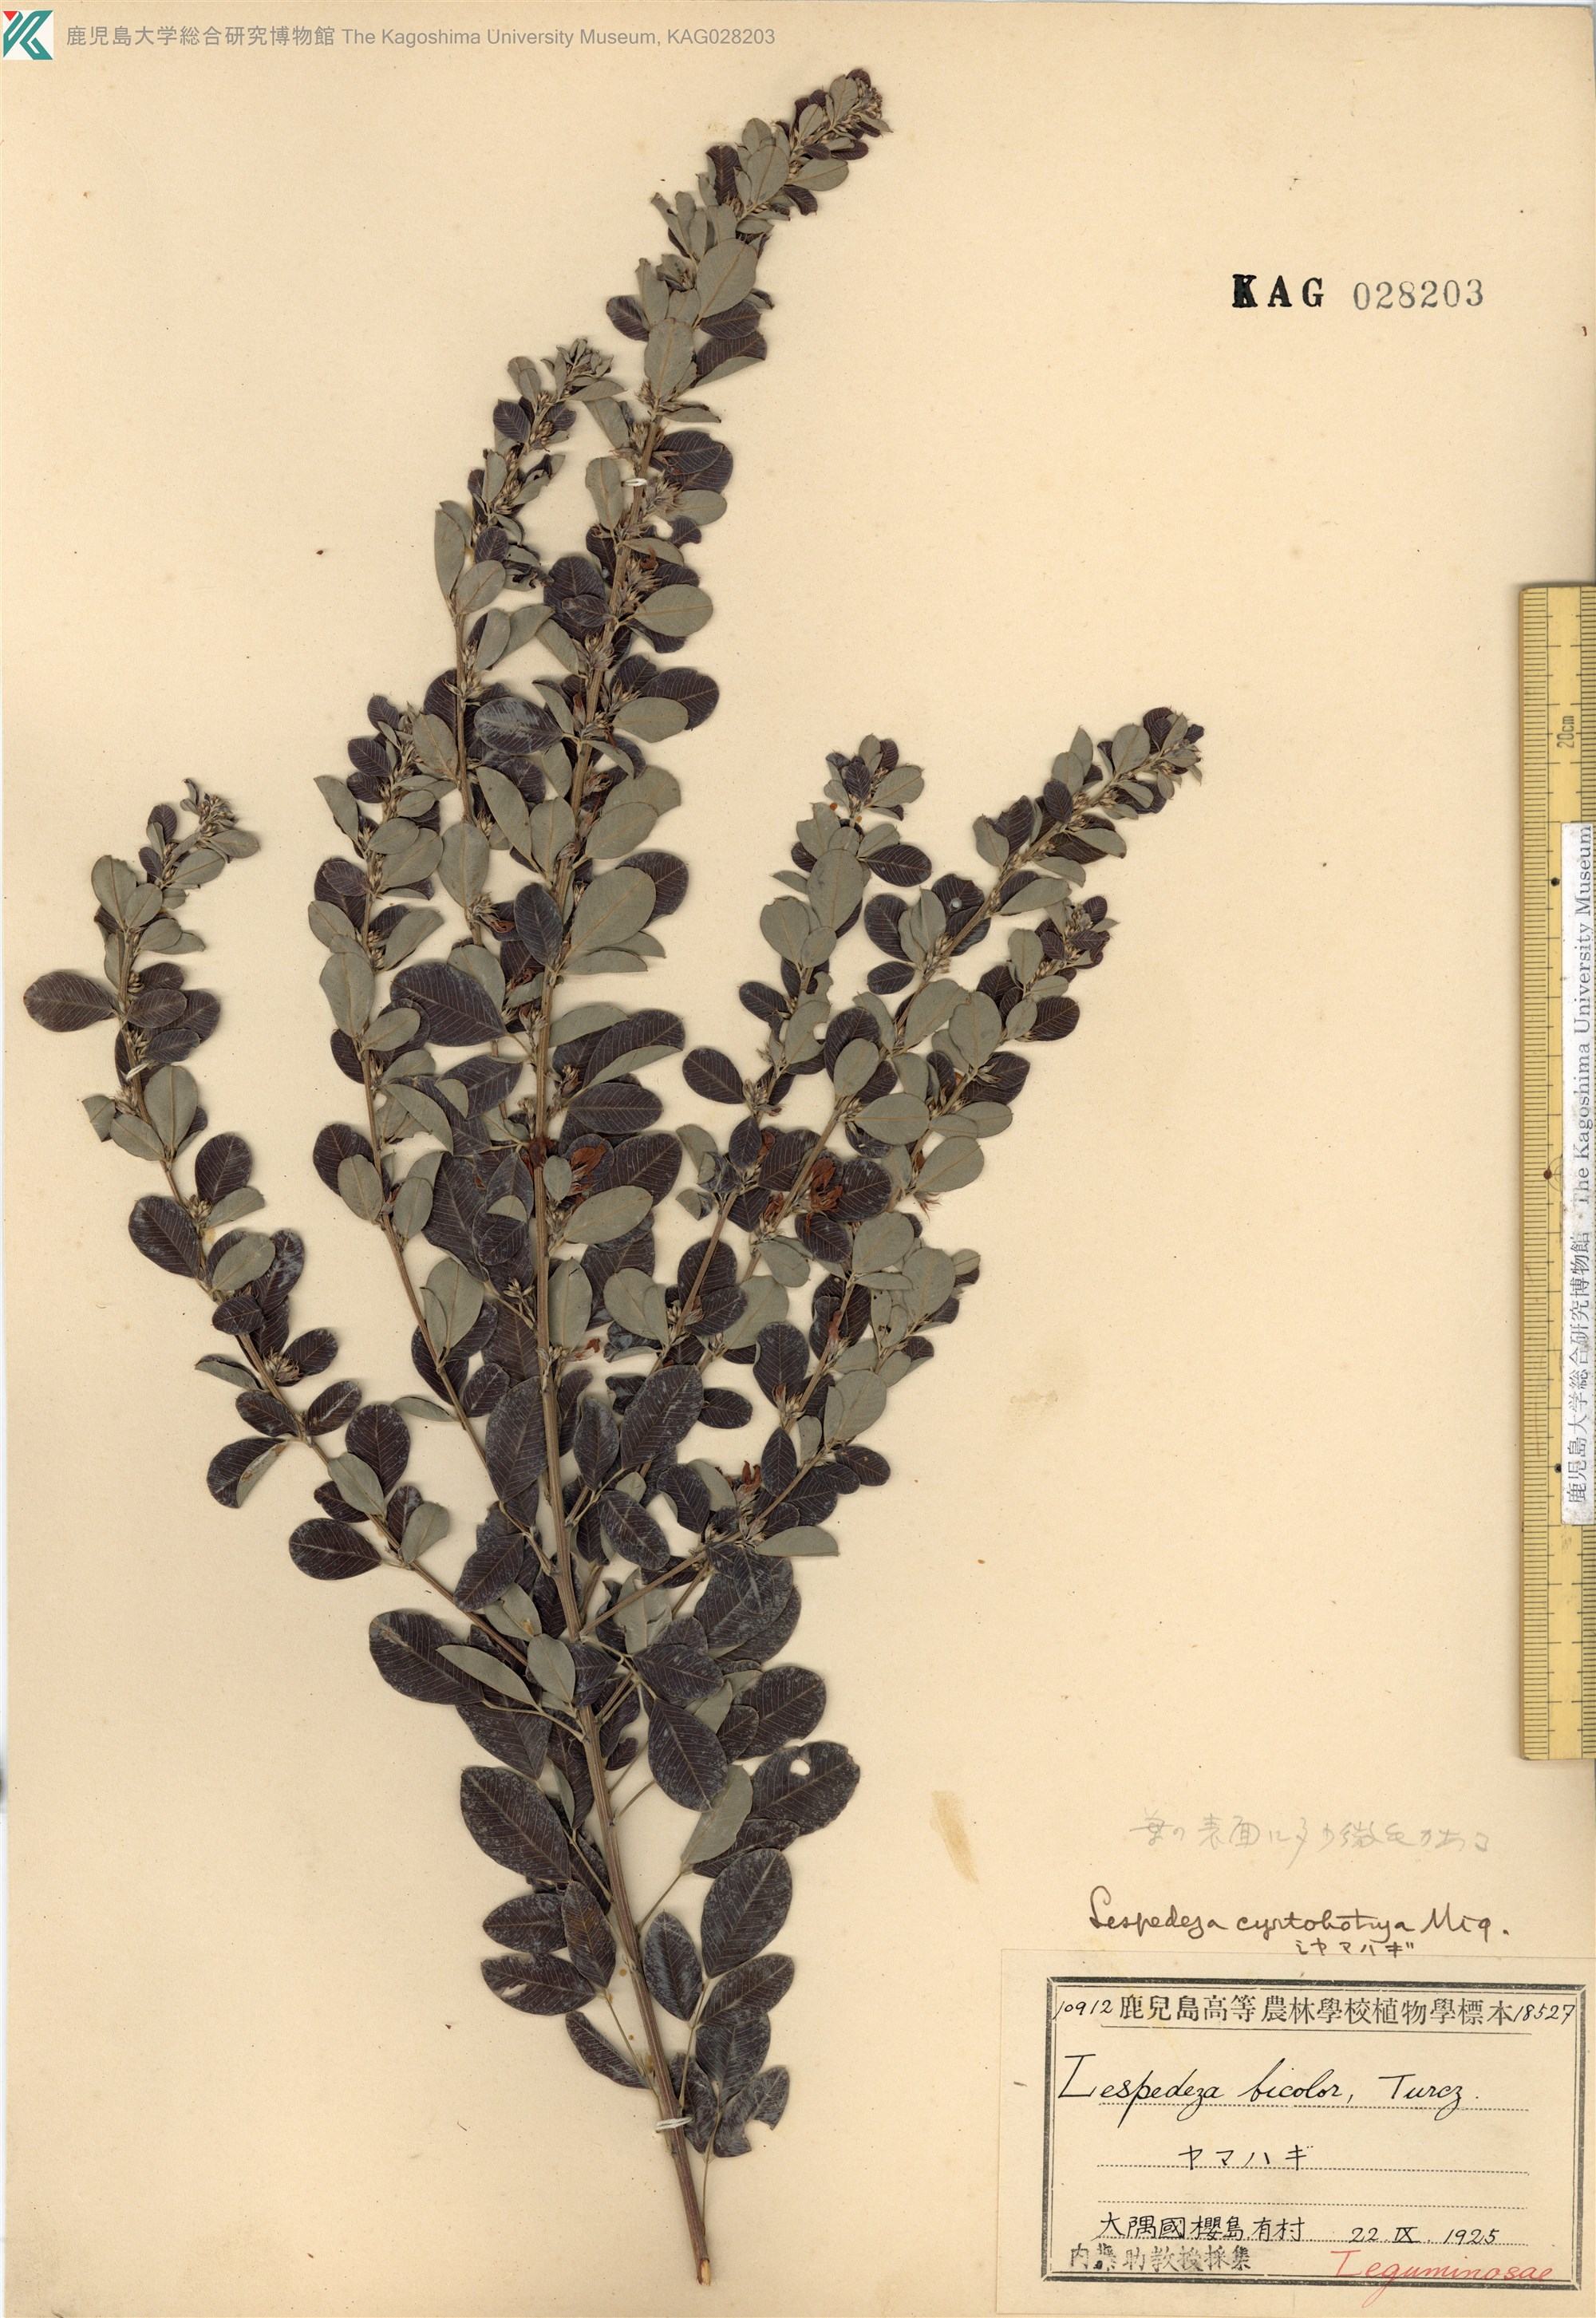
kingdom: Plantae
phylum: Tracheophyta
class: Magnoliopsida
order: Fabales
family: Fabaceae
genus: Lespedeza
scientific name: Lespedeza cyrtobotrya
